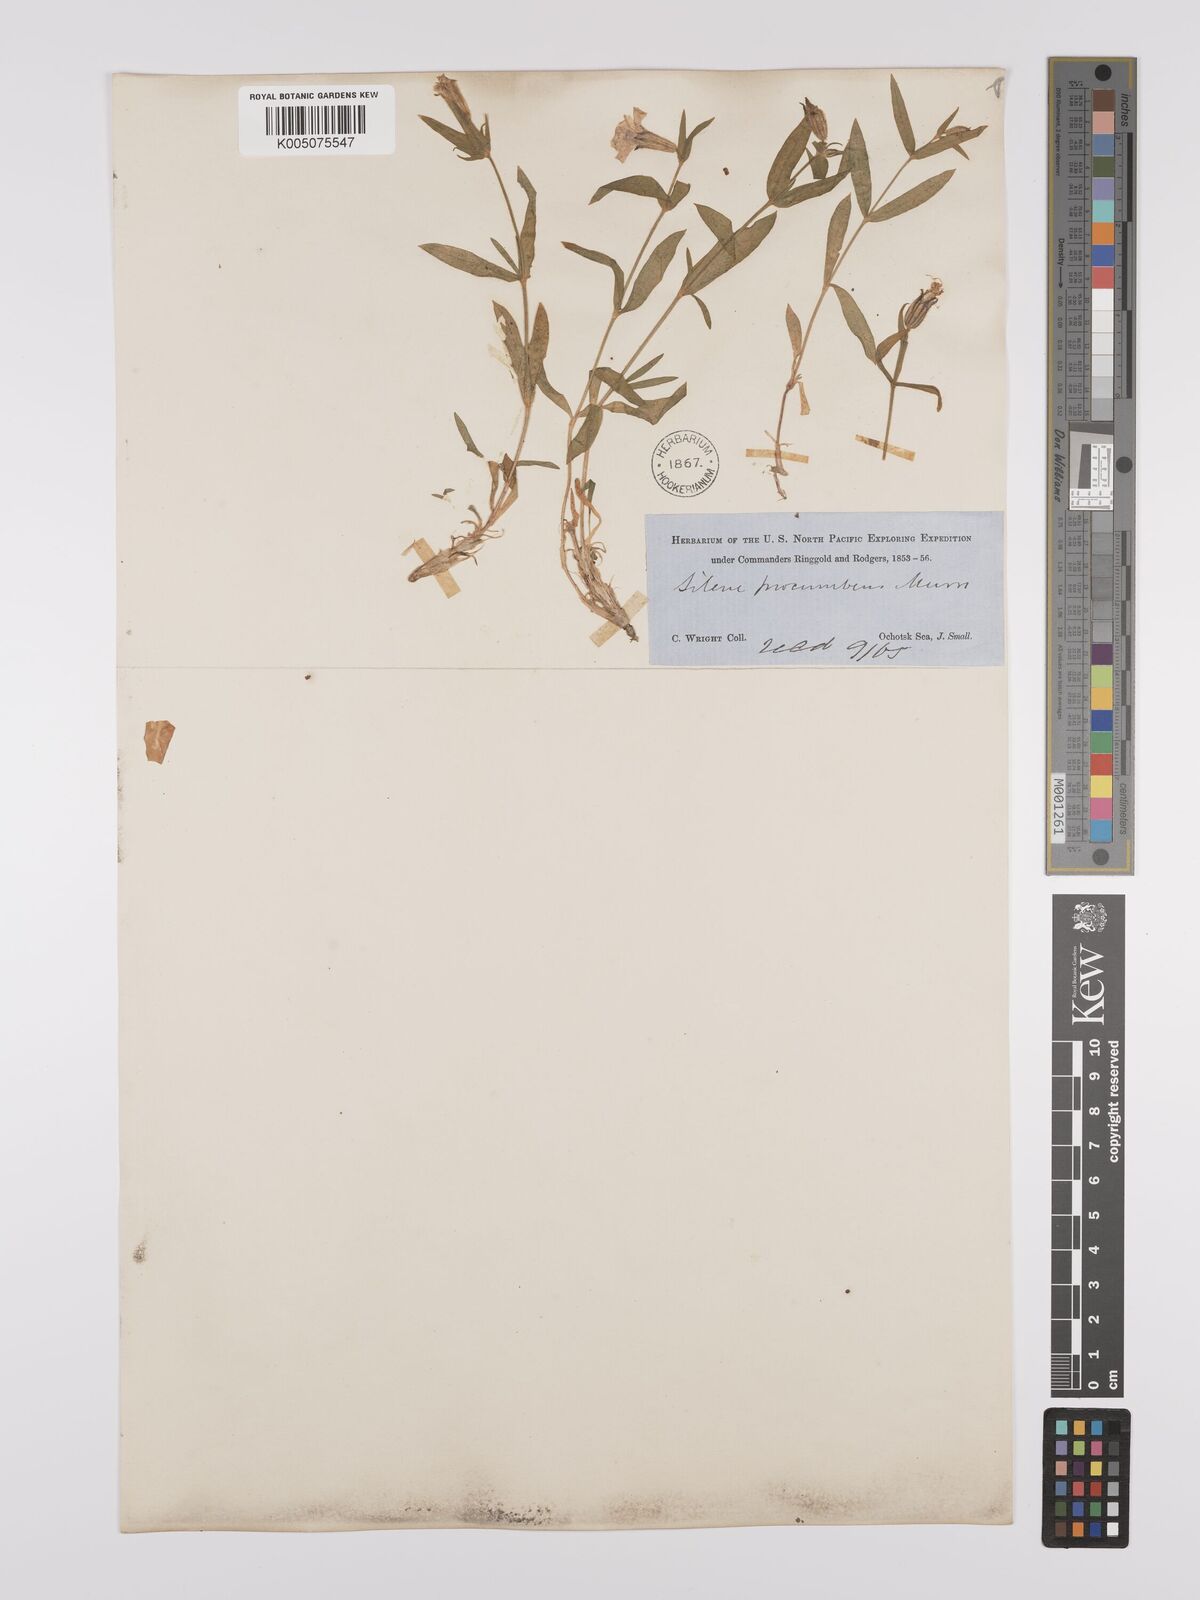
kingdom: Plantae
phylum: Tracheophyta
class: Magnoliopsida
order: Caryophyllales
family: Caryophyllaceae
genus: Silene
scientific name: Silene
